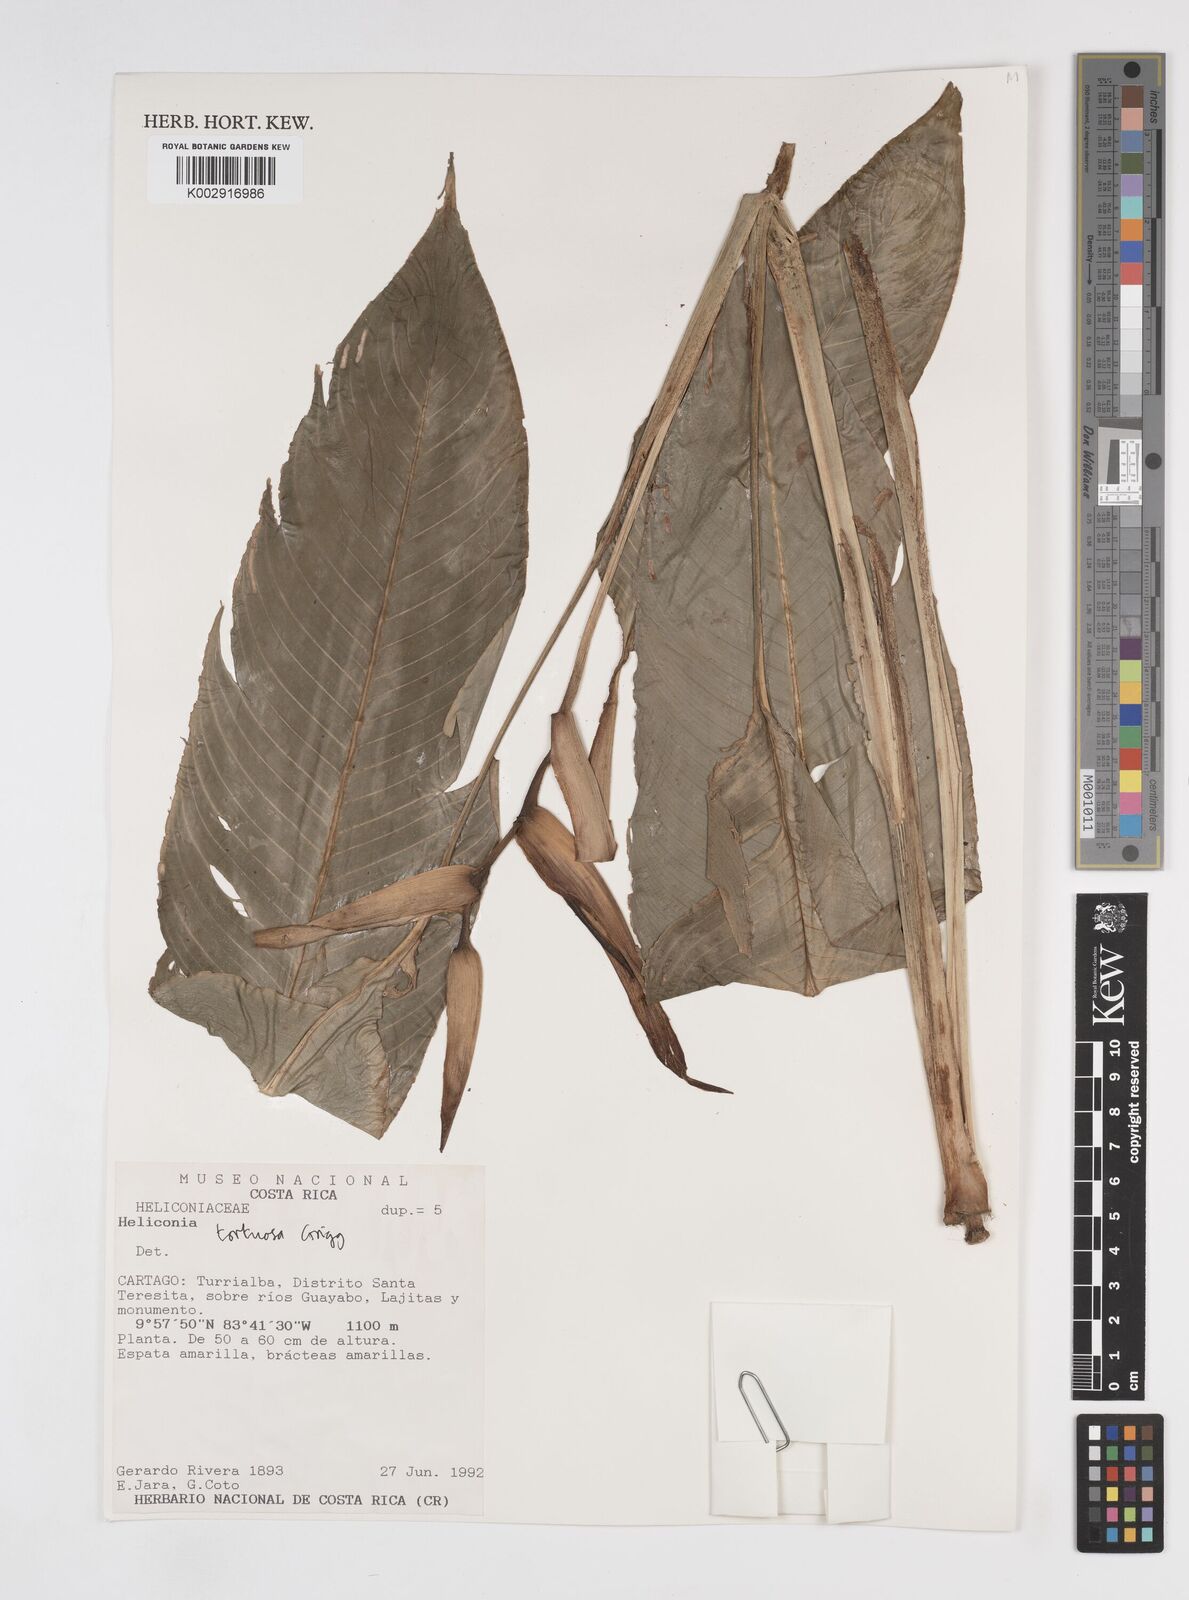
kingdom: Plantae
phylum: Tracheophyta
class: Liliopsida
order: Zingiberales
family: Heliconiaceae
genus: Heliconia
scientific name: Heliconia tortuosa
